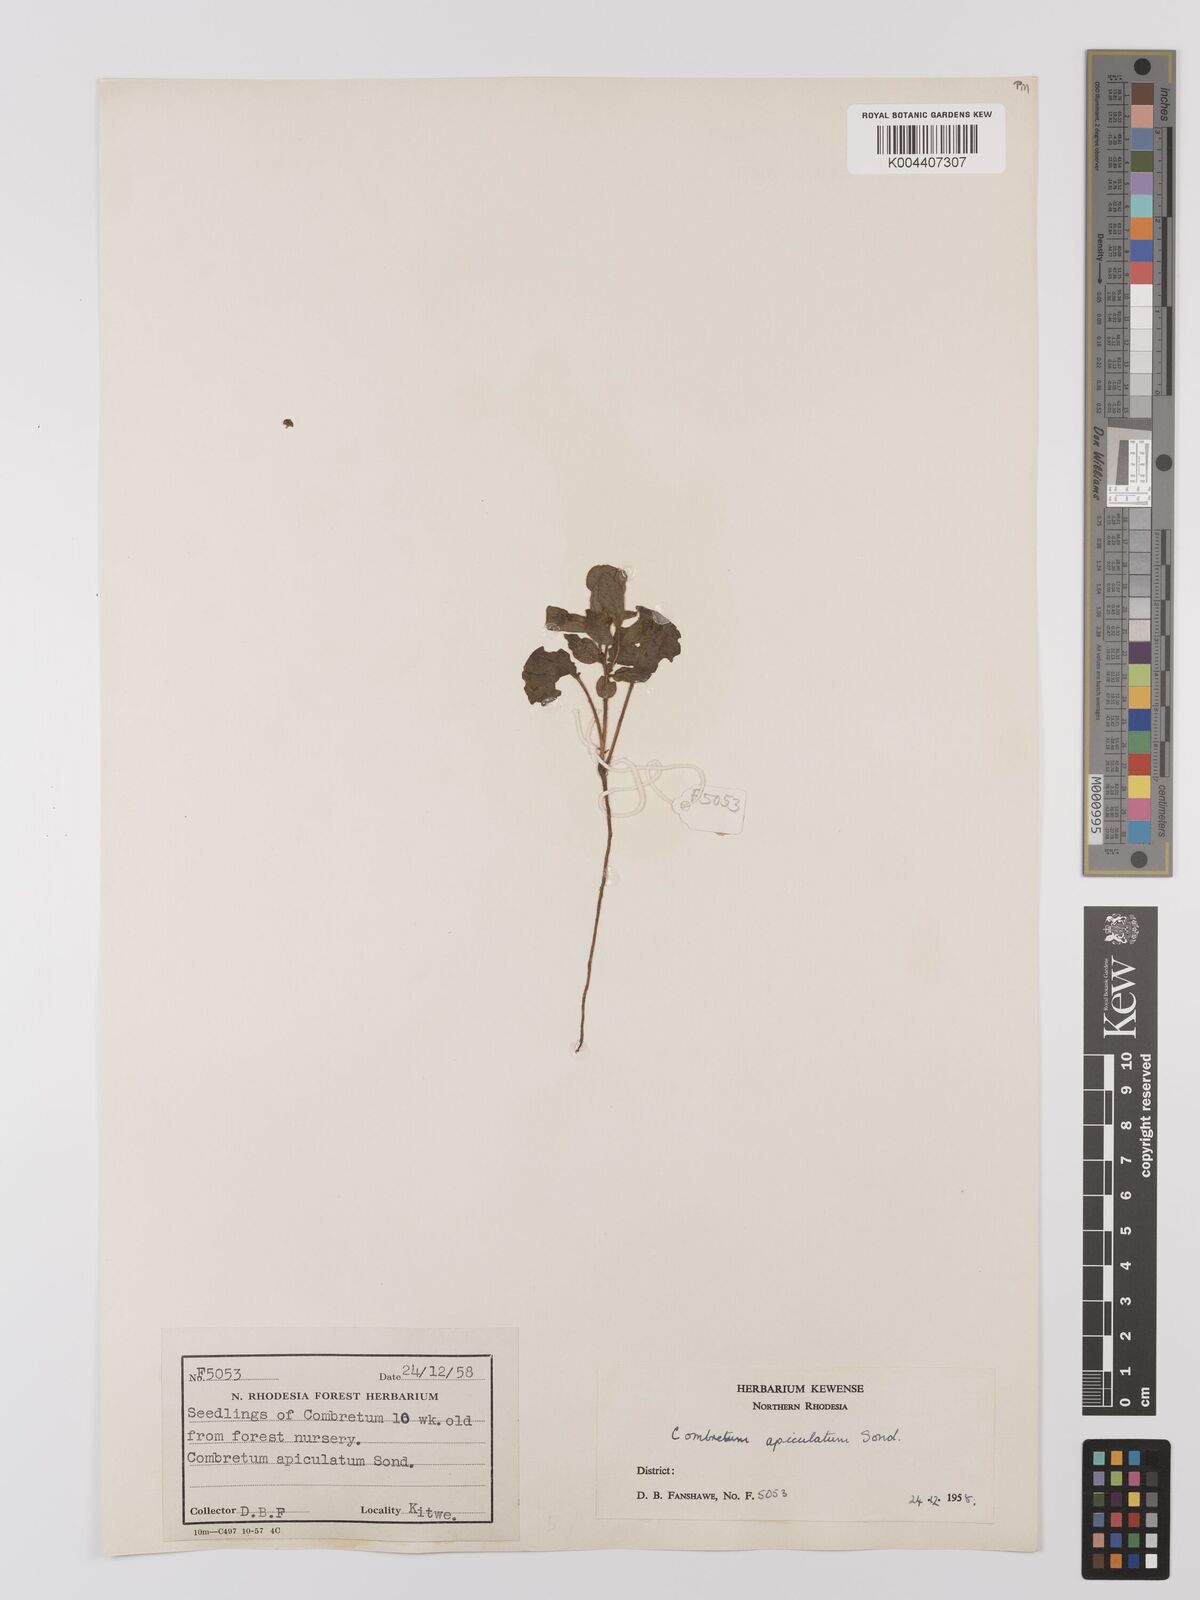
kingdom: Plantae
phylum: Tracheophyta
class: Magnoliopsida
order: Myrtales
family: Combretaceae
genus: Combretum
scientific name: Combretum apiculatum
